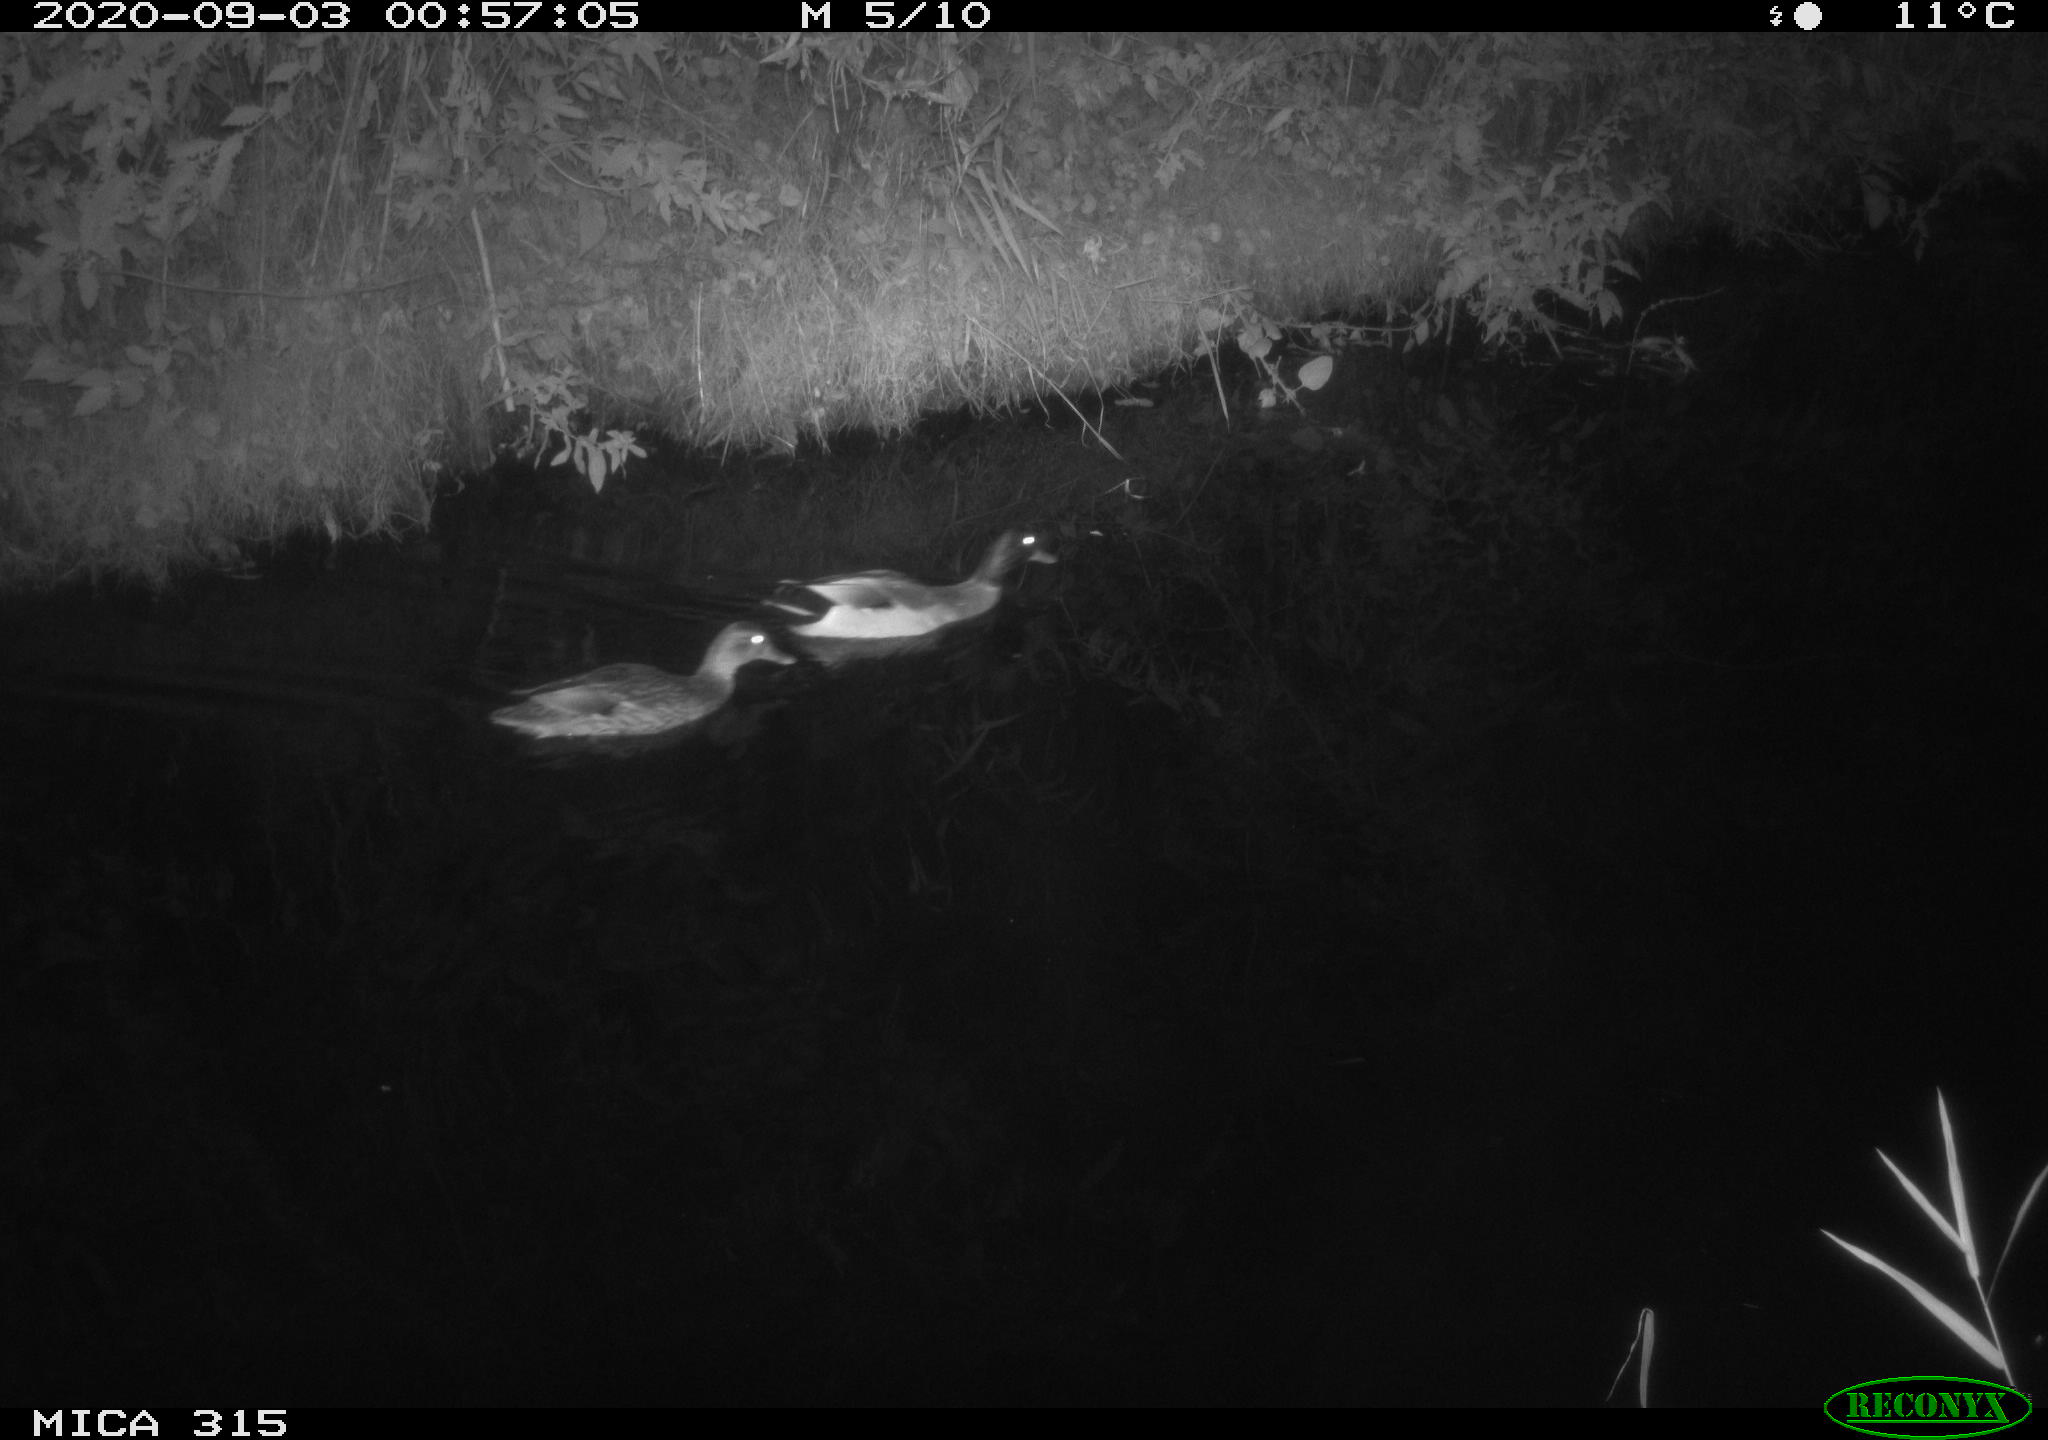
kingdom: Animalia
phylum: Chordata
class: Aves
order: Anseriformes
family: Anatidae
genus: Anas
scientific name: Anas platyrhynchos
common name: Mallard
